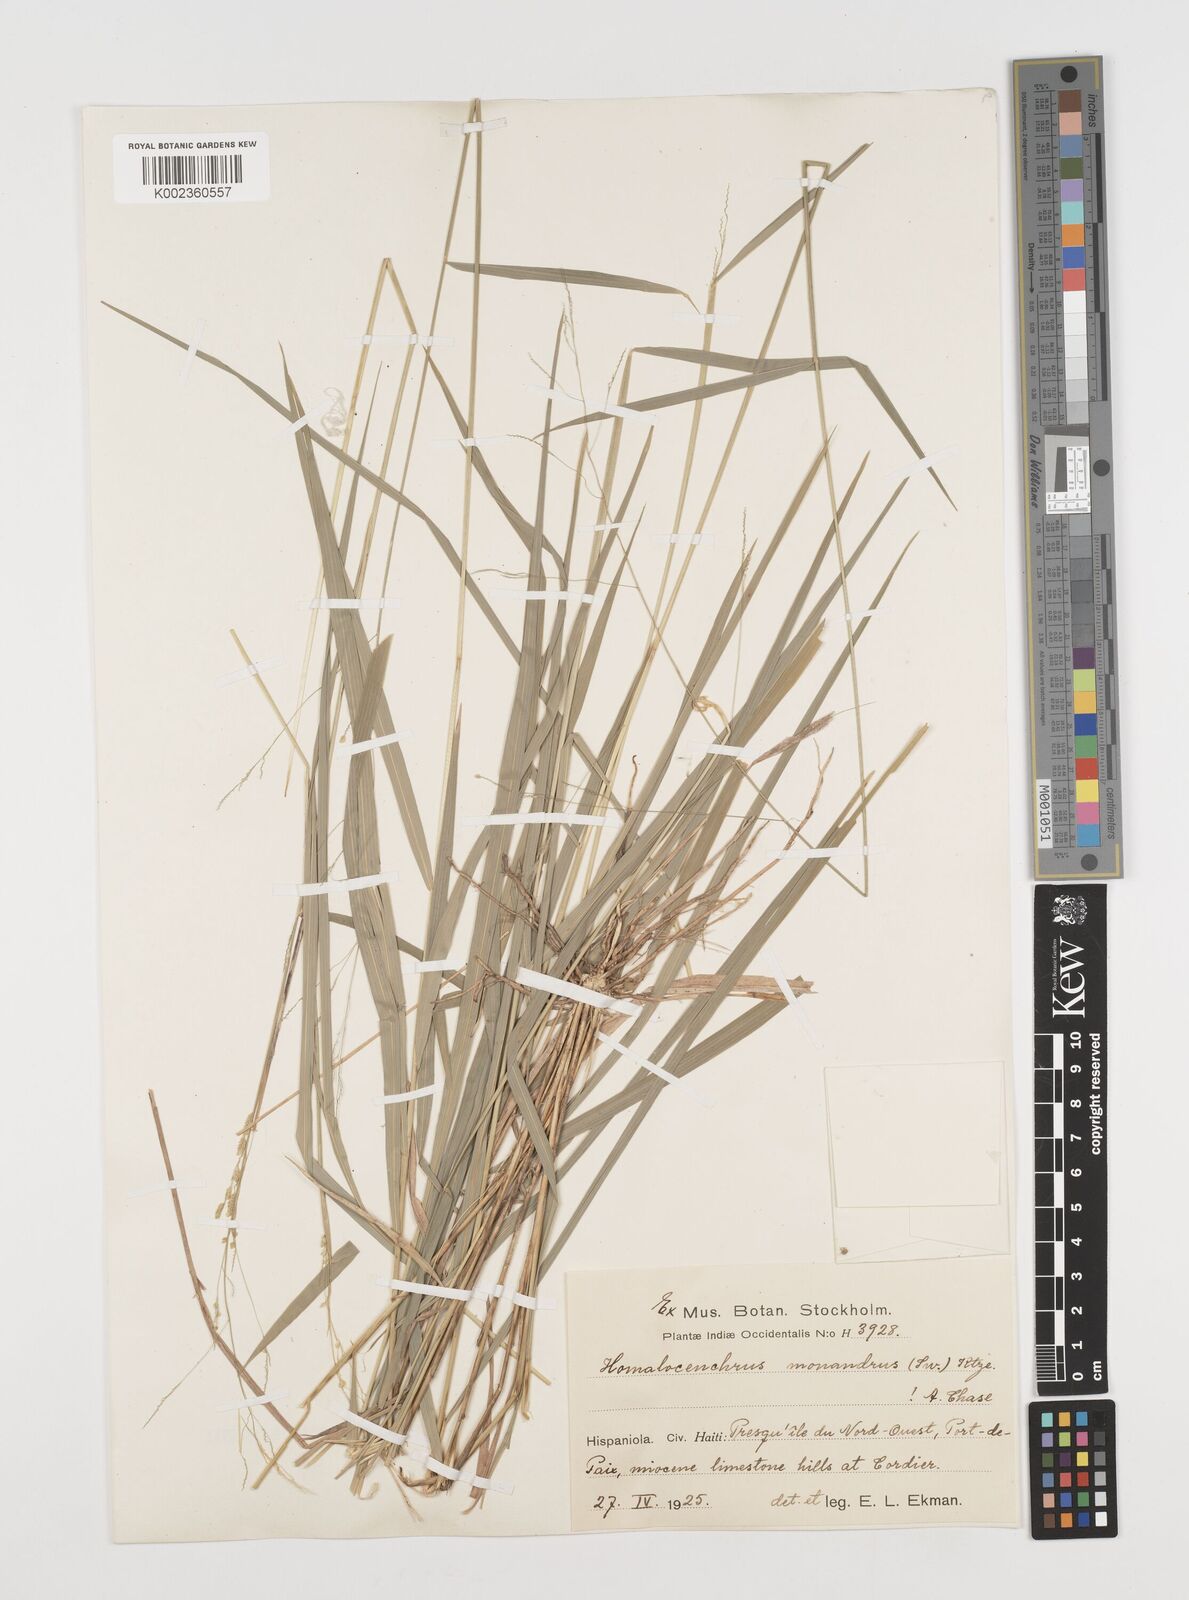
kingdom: Plantae
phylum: Tracheophyta
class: Liliopsida
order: Poales
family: Poaceae
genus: Leersia
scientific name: Leersia monandra
